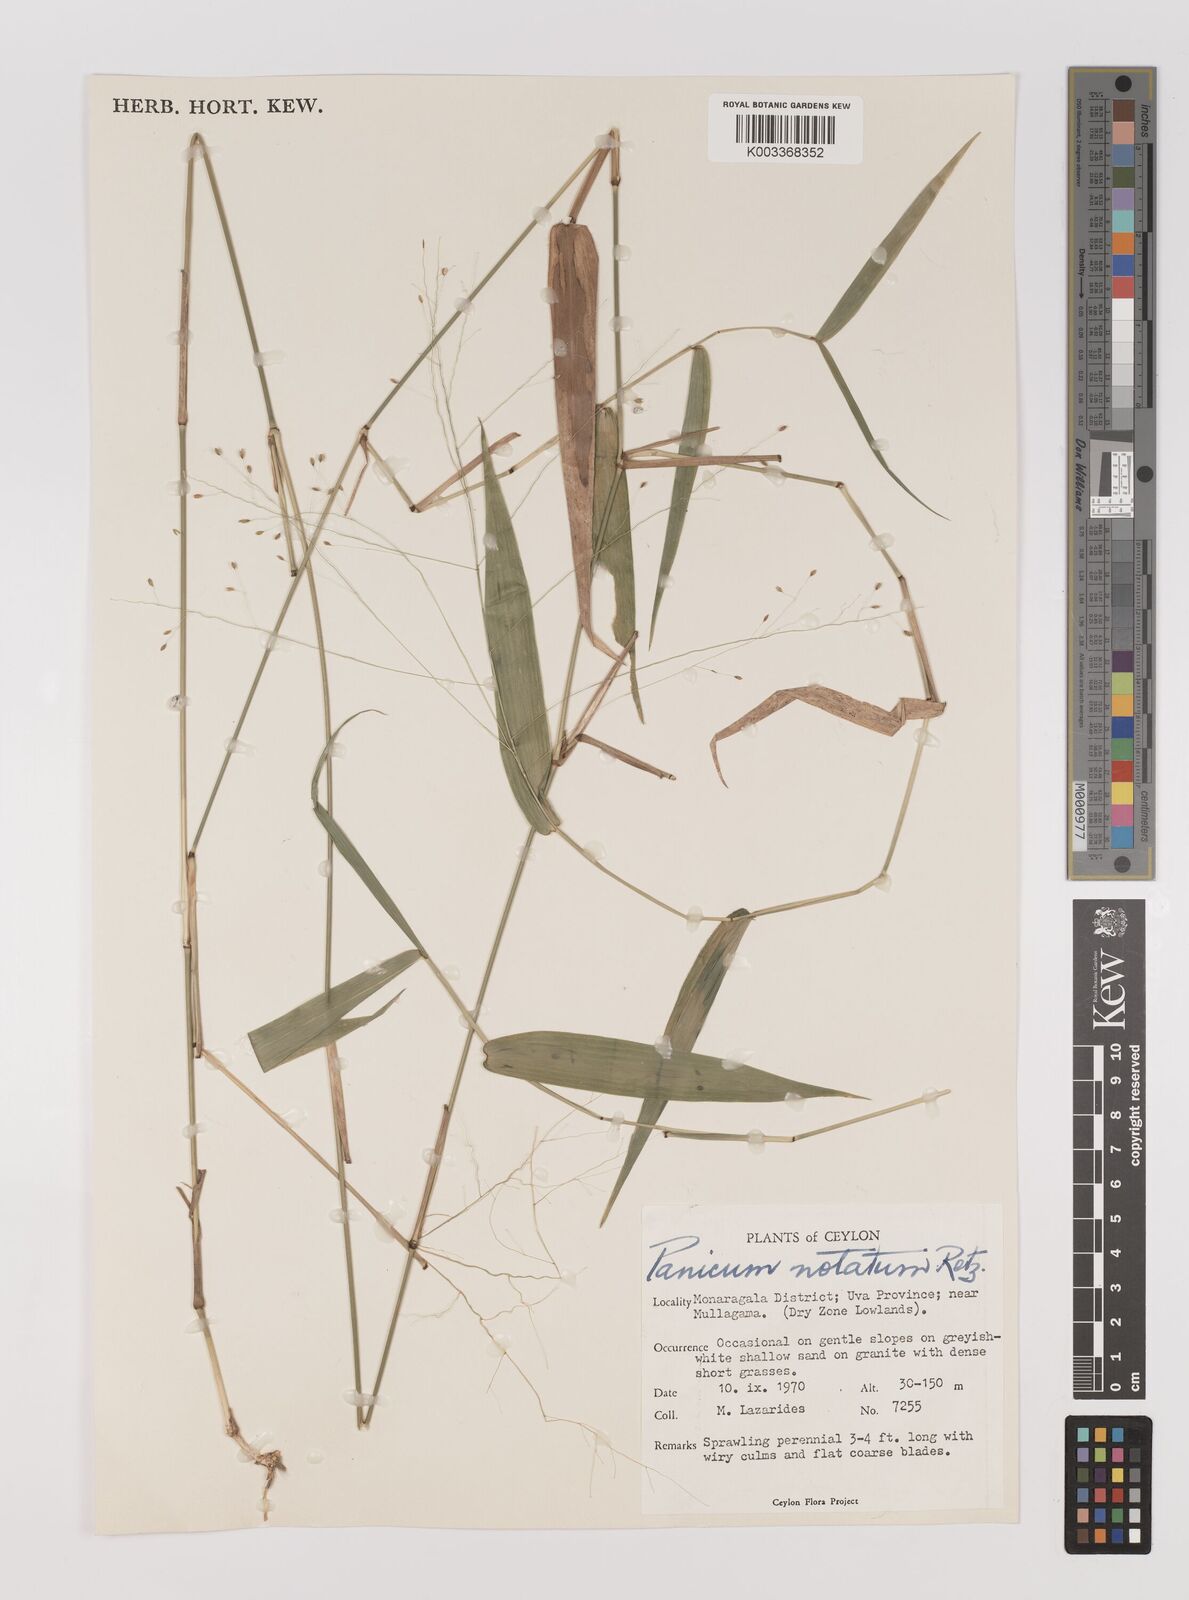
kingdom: Plantae
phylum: Tracheophyta
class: Liliopsida
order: Poales
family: Poaceae
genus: Panicum
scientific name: Panicum notatum
